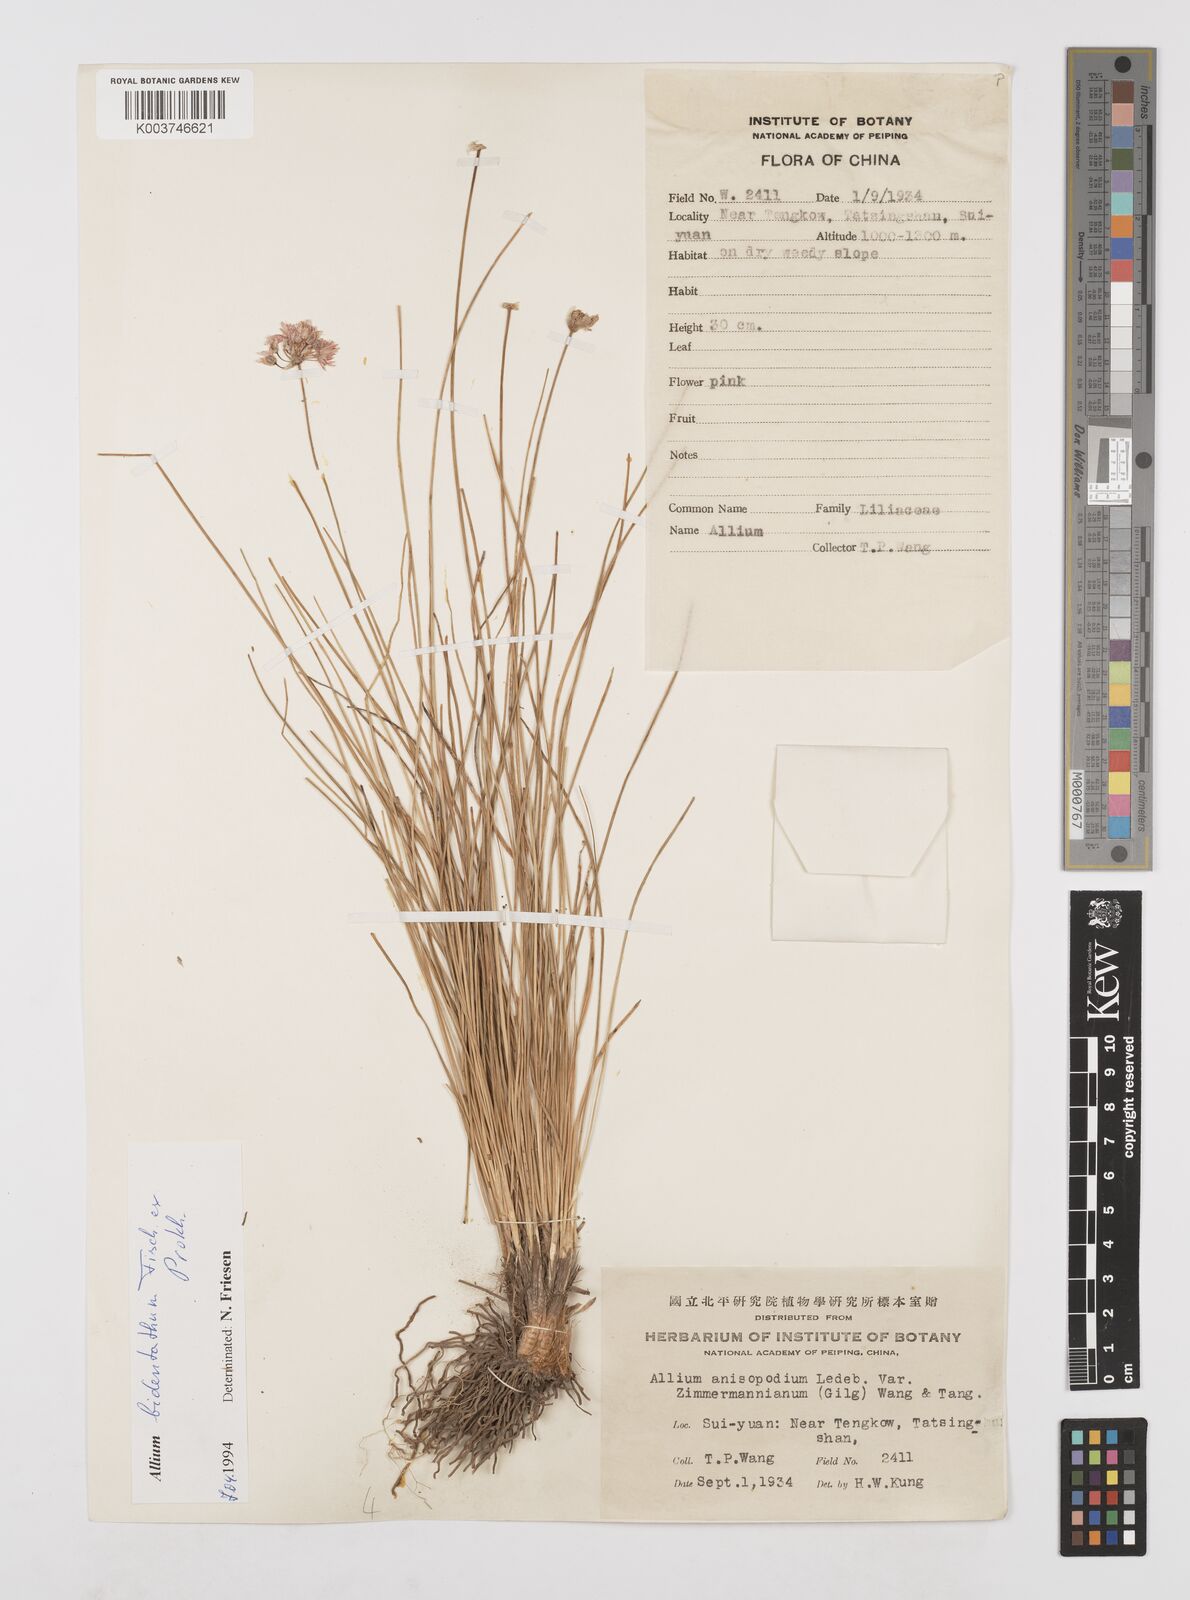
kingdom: Plantae
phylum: Tracheophyta
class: Liliopsida
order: Asparagales
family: Amaryllidaceae
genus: Allium
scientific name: Allium bidentatum
